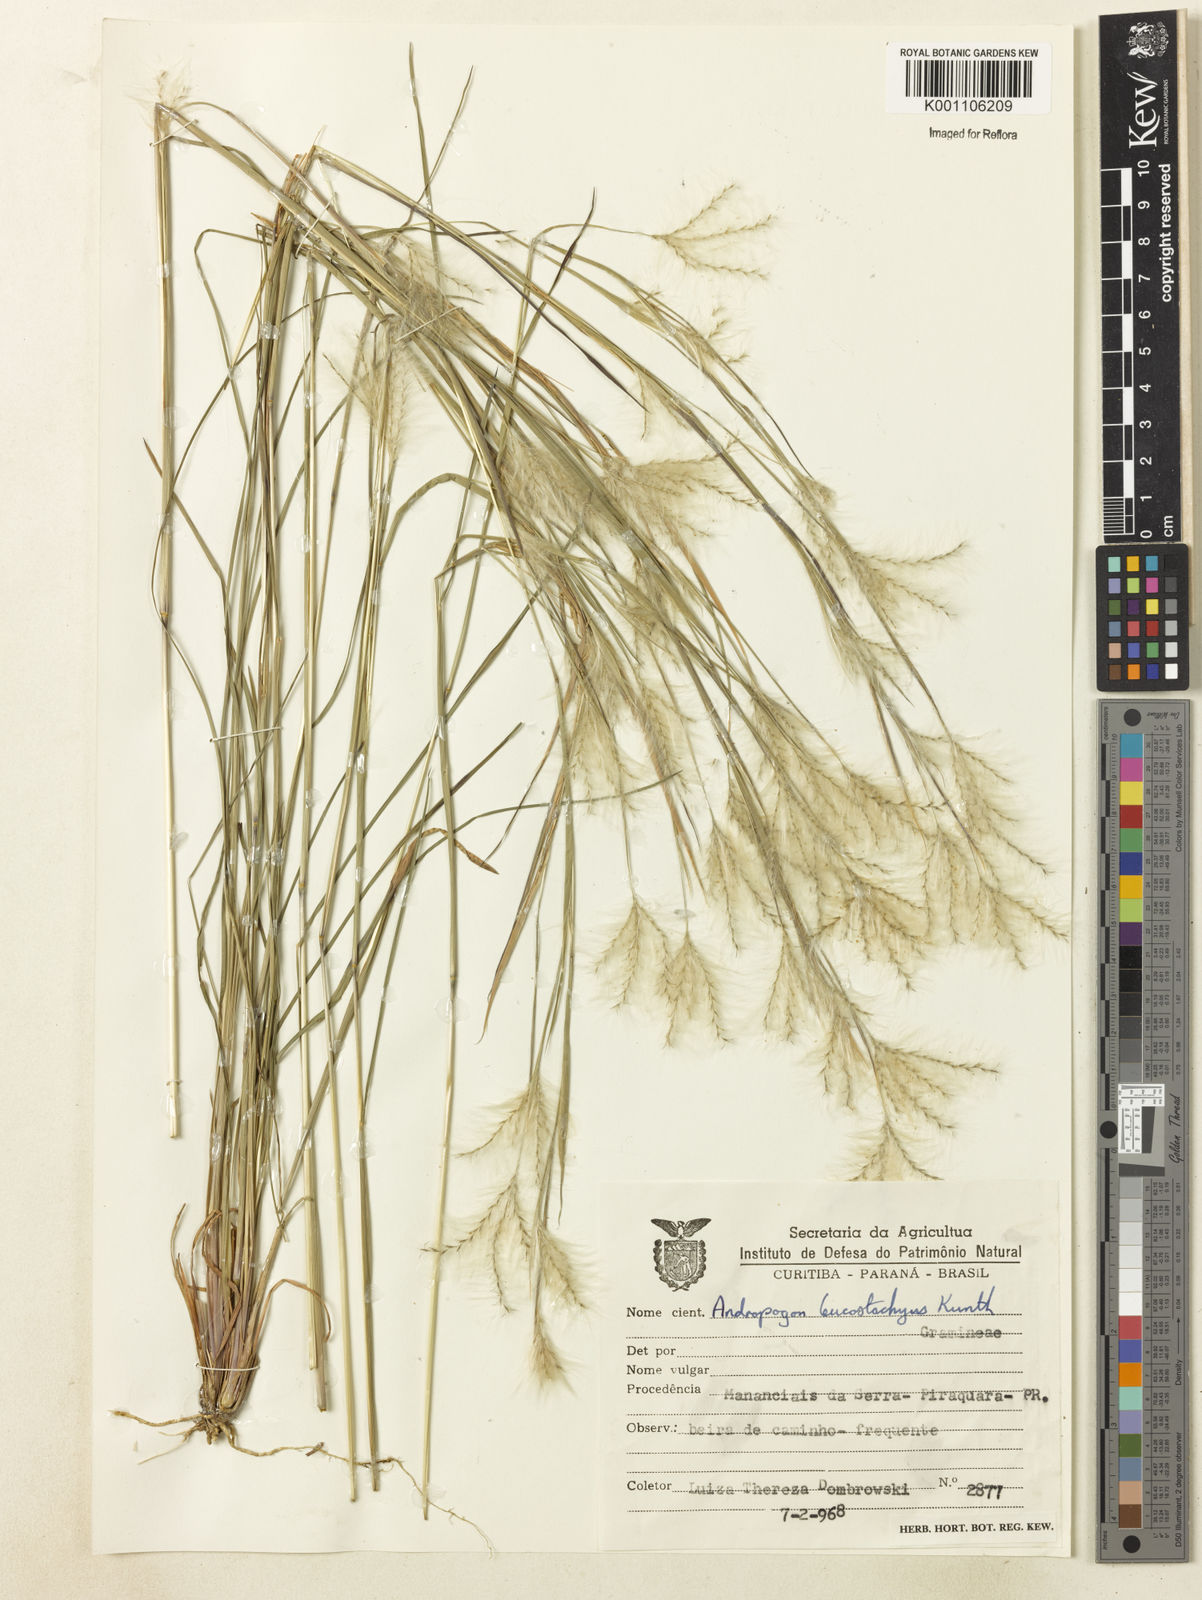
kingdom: Plantae
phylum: Tracheophyta
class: Liliopsida
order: Poales
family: Poaceae
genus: Andropogon
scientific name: Andropogon leucostachyus
